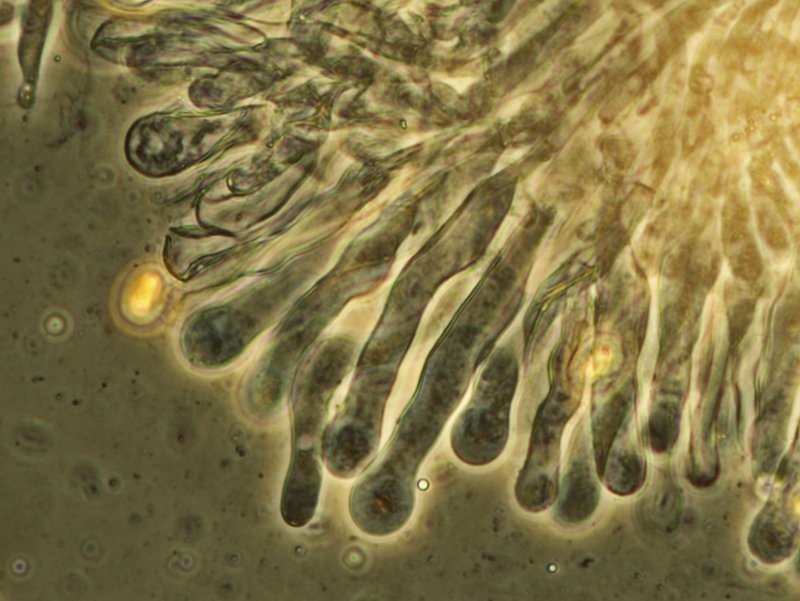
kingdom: Fungi
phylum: Basidiomycota
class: Agaricomycetes
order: Agaricales
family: Crepidotaceae
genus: Simocybe
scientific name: Simocybe sumptuosa
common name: stor skyggehat
